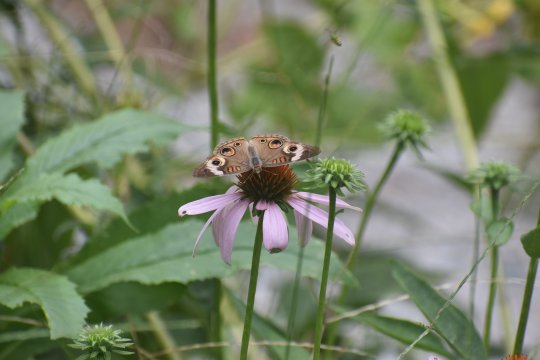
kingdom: Animalia
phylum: Arthropoda
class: Insecta
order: Lepidoptera
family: Nymphalidae
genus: Junonia
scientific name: Junonia coenia
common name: Common Buckeye
